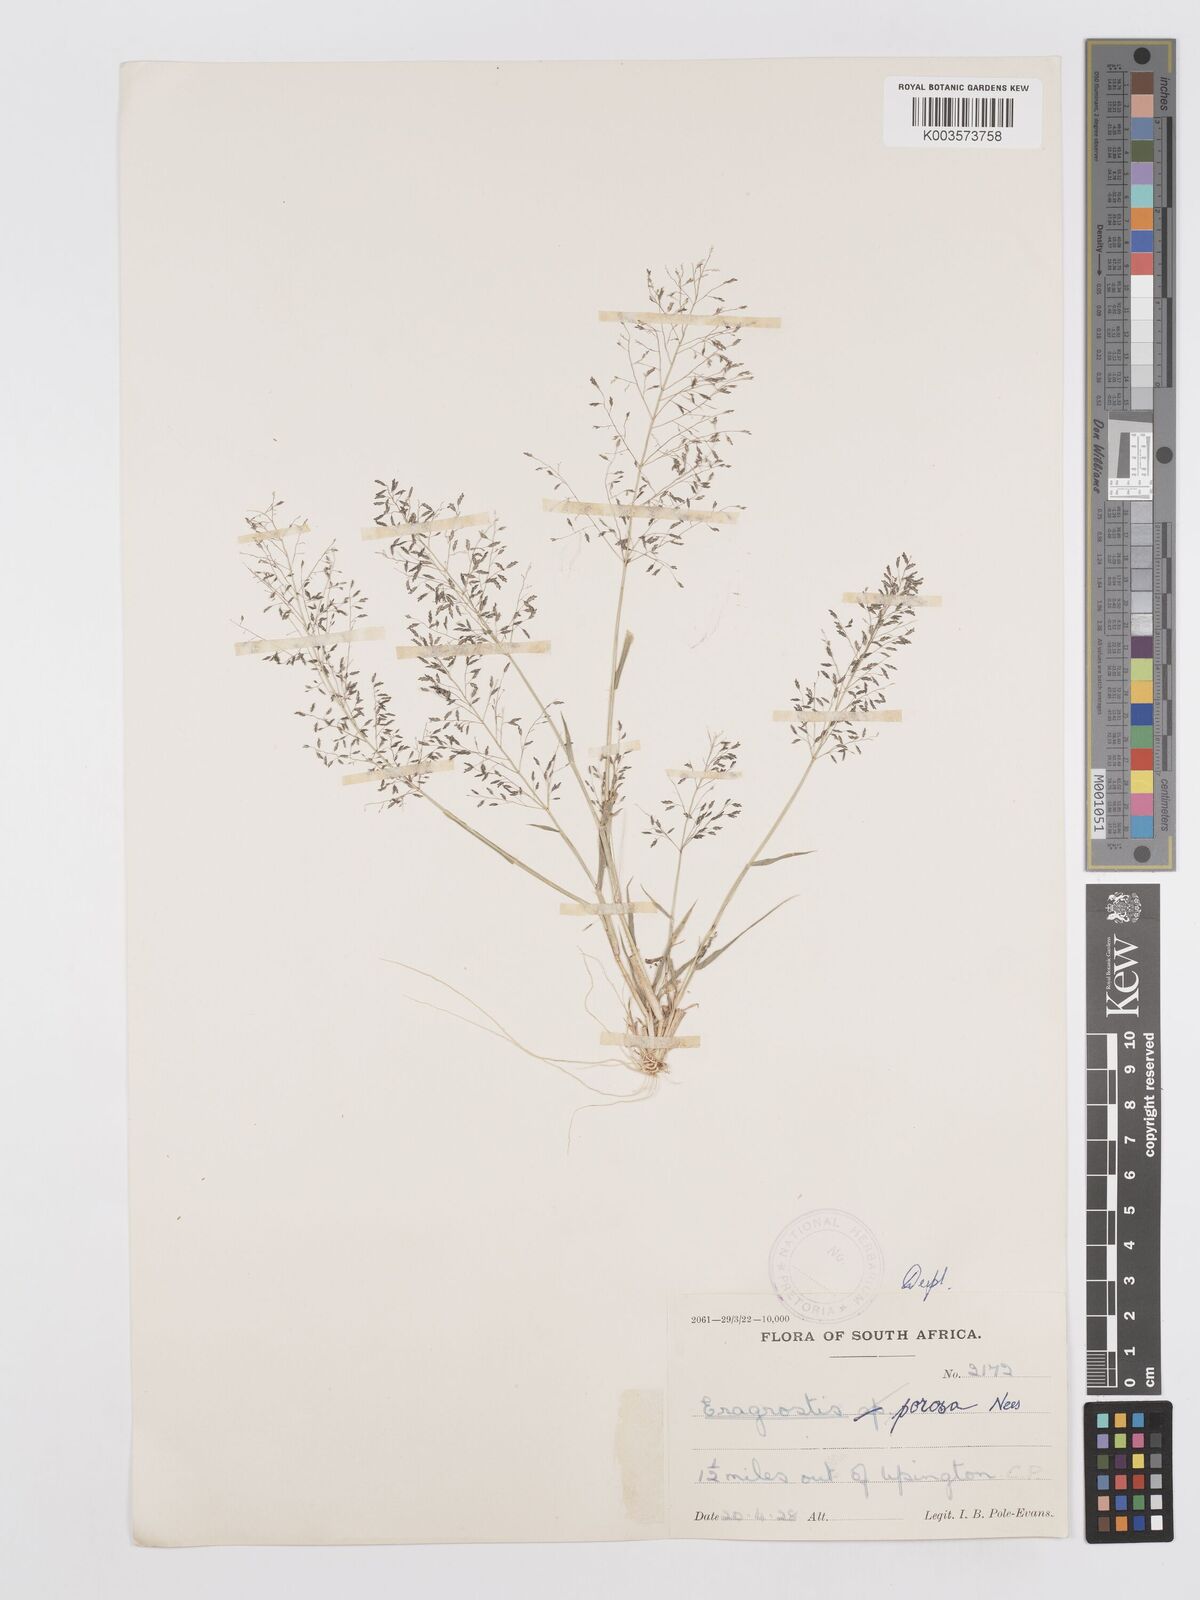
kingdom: Plantae
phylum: Tracheophyta
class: Liliopsida
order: Poales
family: Poaceae
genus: Eragrostis
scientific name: Eragrostis porosa
